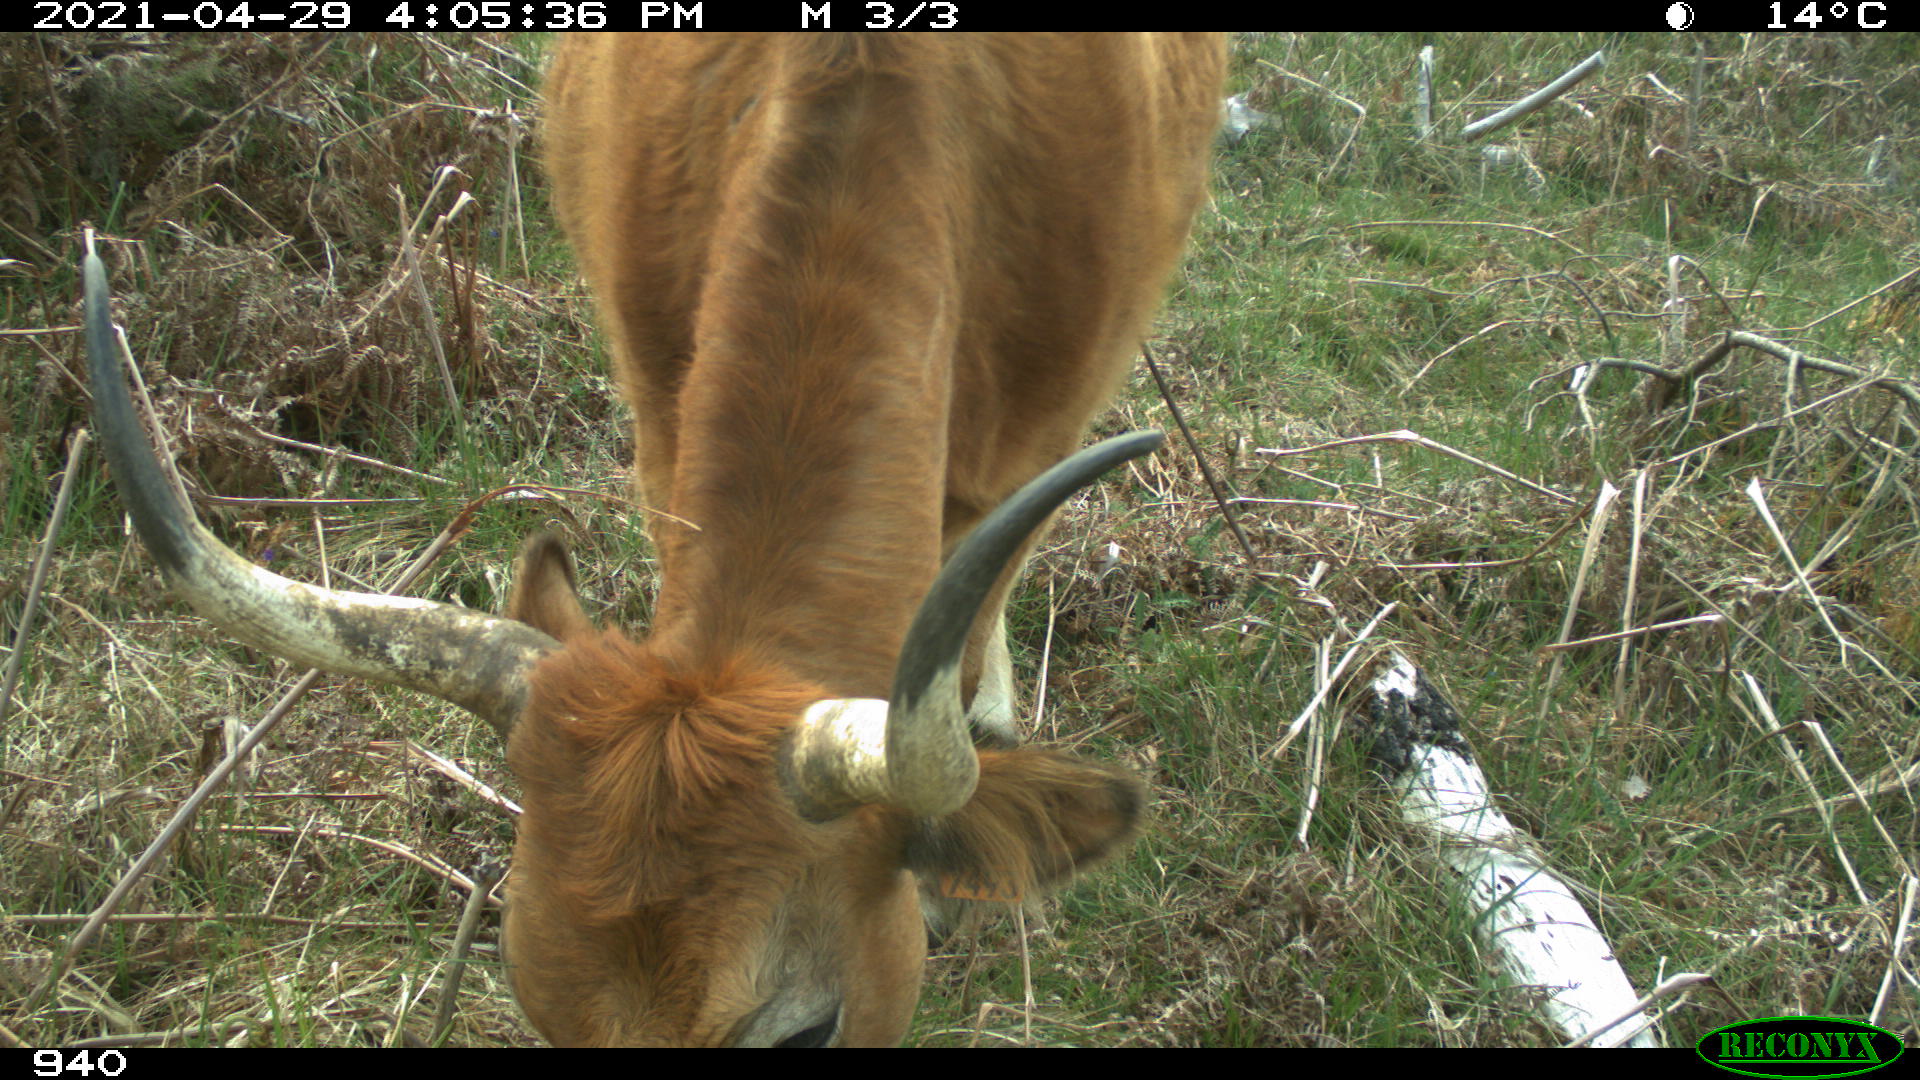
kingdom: Animalia
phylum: Chordata
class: Mammalia
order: Artiodactyla
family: Bovidae
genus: Bos
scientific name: Bos taurus
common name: Domesticated cattle
